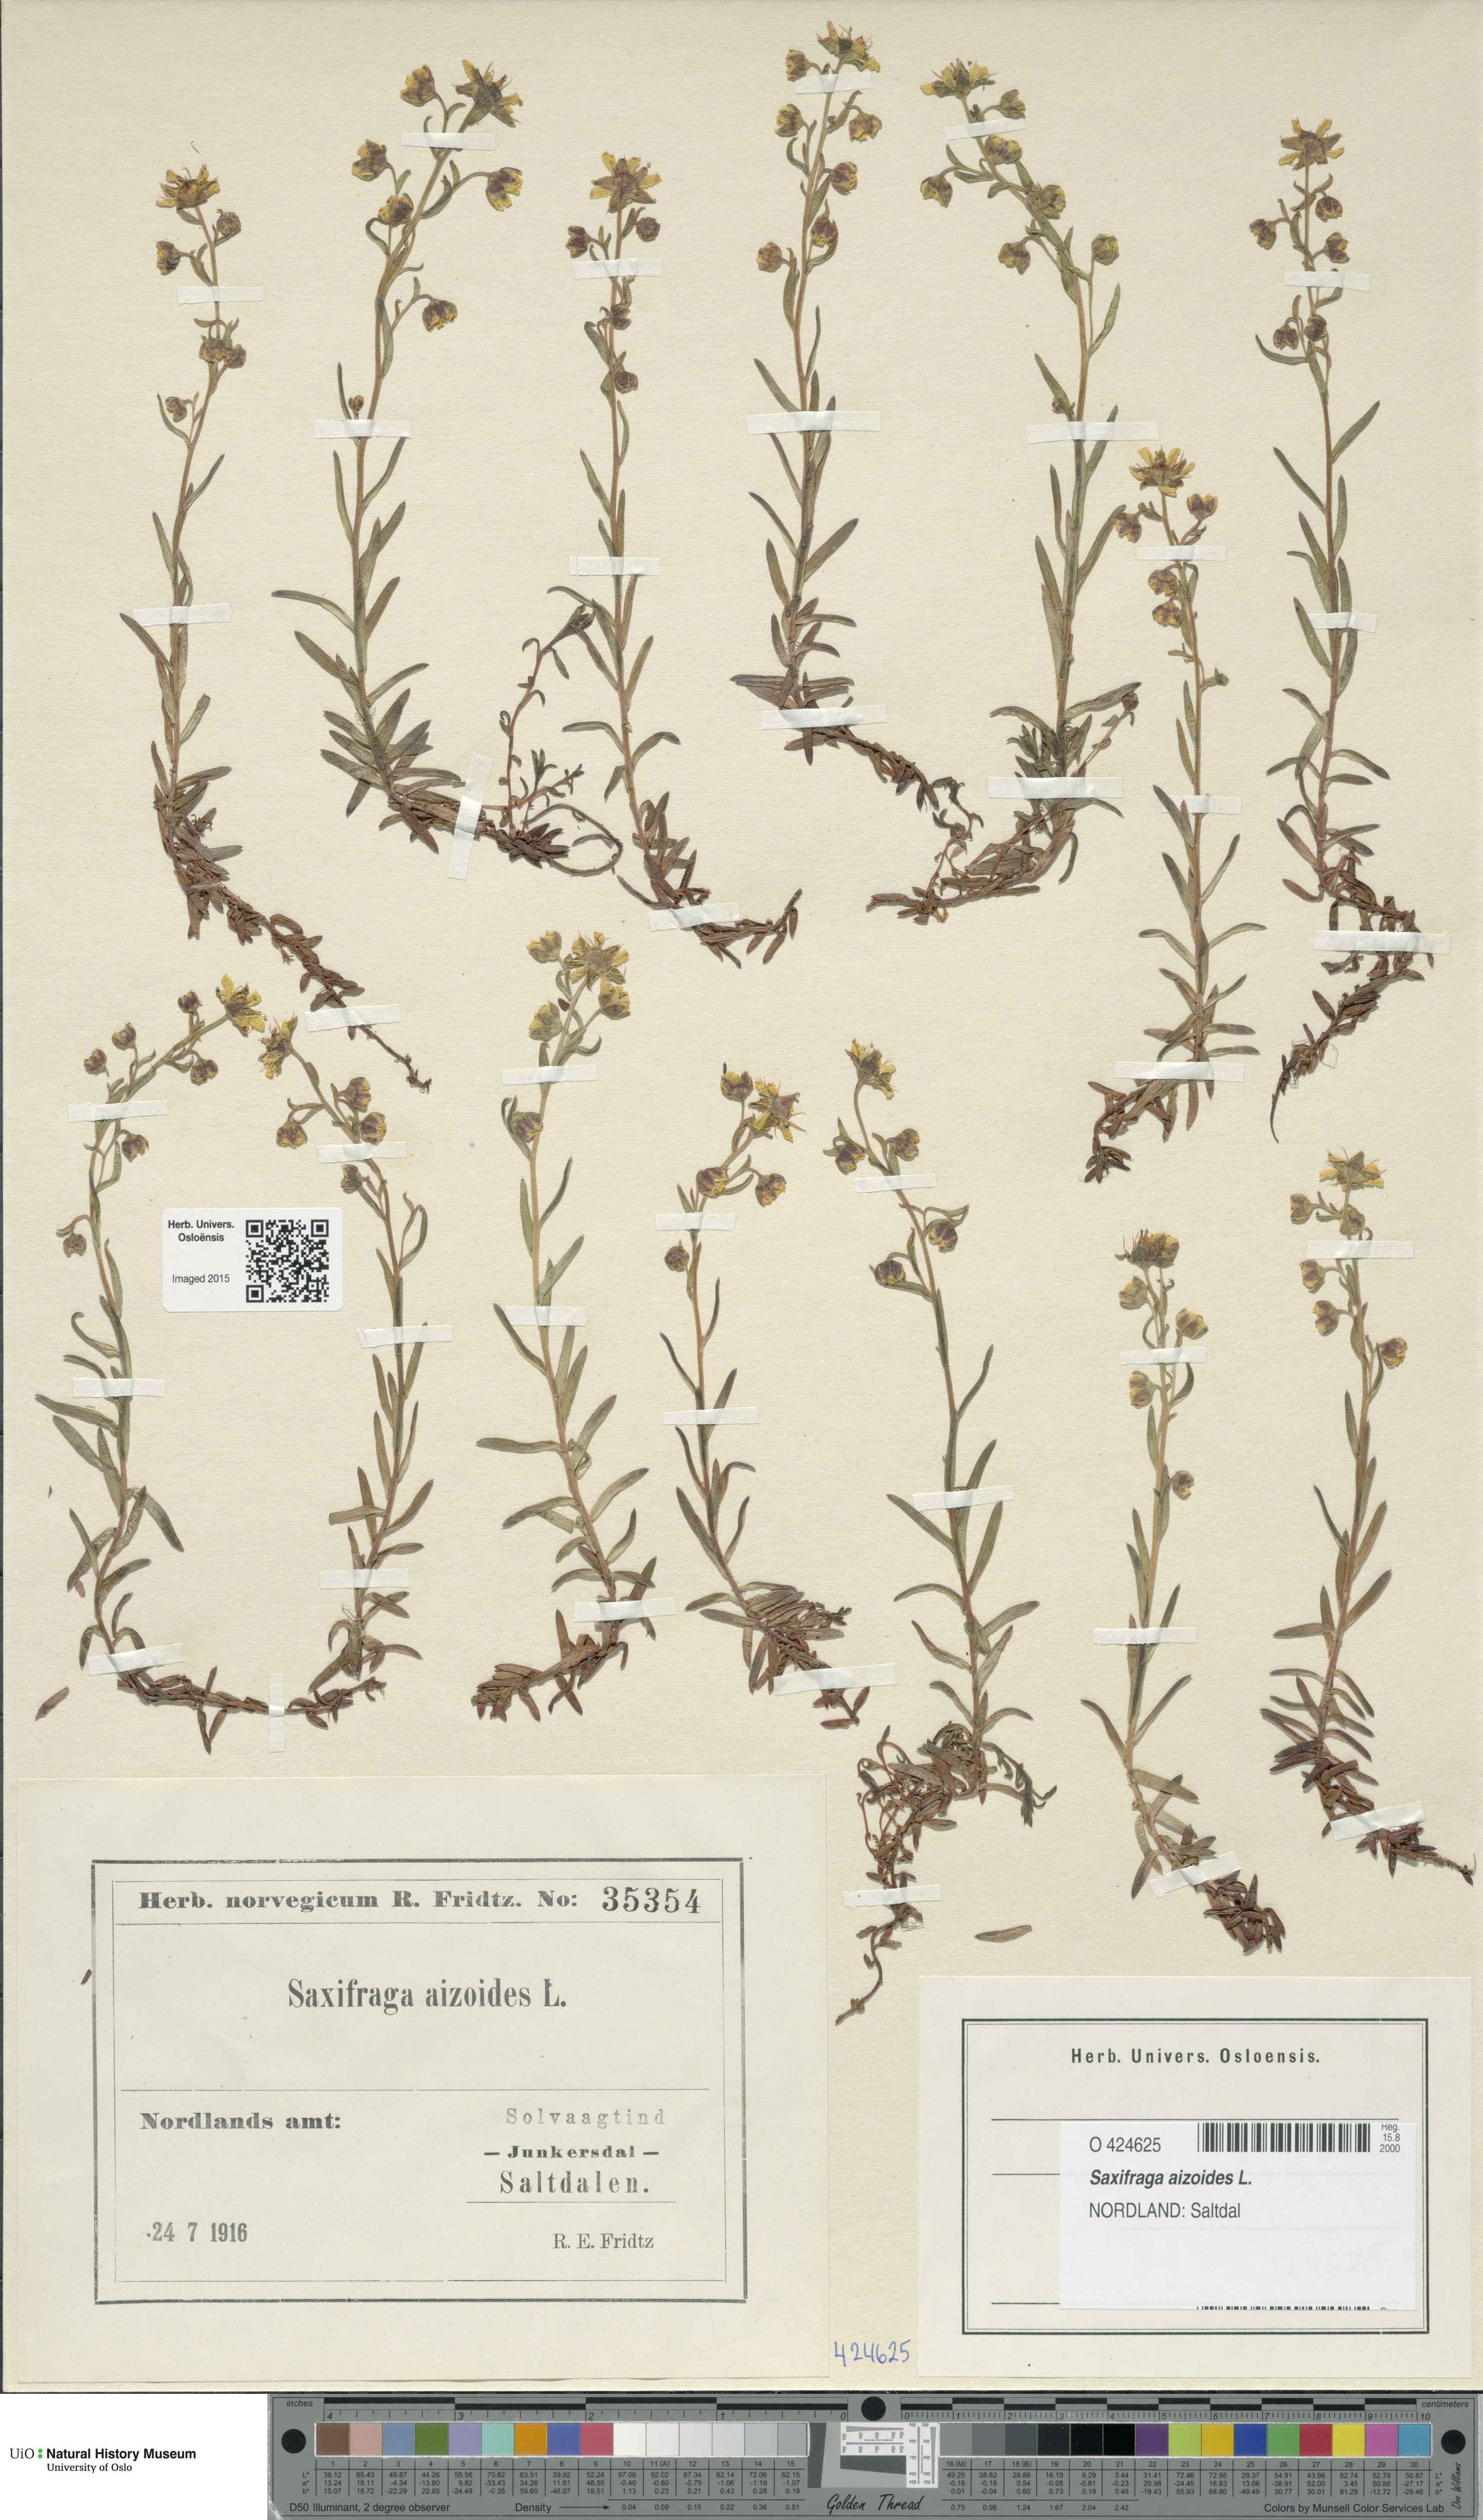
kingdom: Plantae
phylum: Tracheophyta
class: Magnoliopsida
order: Saxifragales
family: Saxifragaceae
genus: Saxifraga
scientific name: Saxifraga aizoides
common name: Yellow mountain saxifrage
